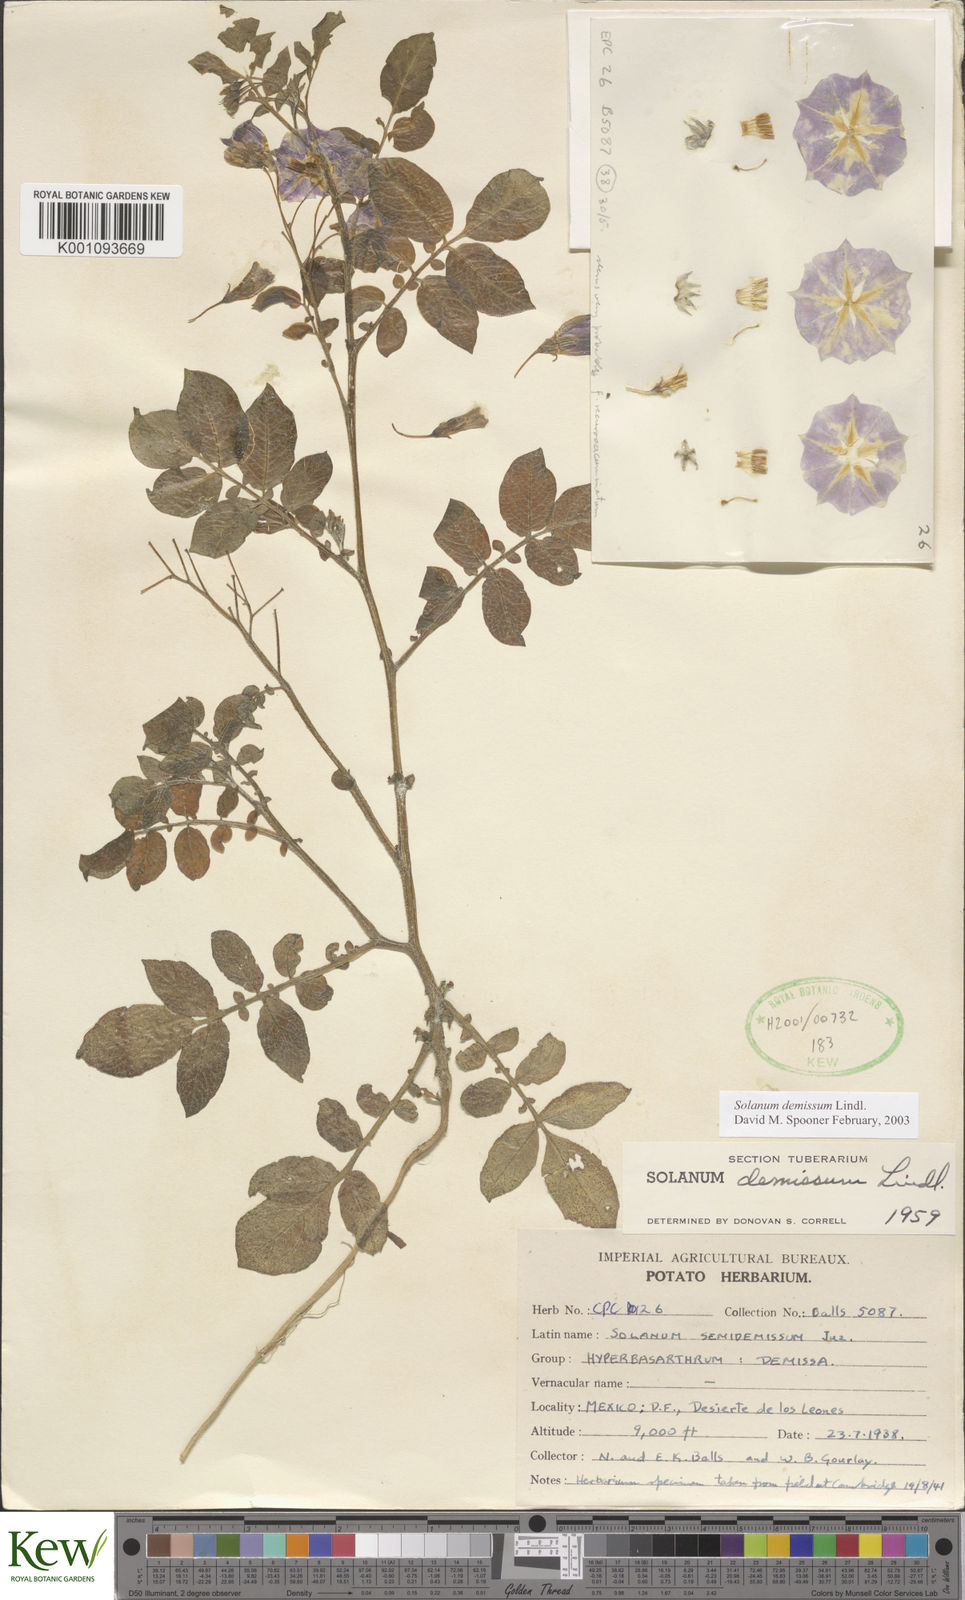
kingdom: Plantae
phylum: Tracheophyta
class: Magnoliopsida
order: Solanales
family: Solanaceae
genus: Solanum
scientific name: Solanum demissum
